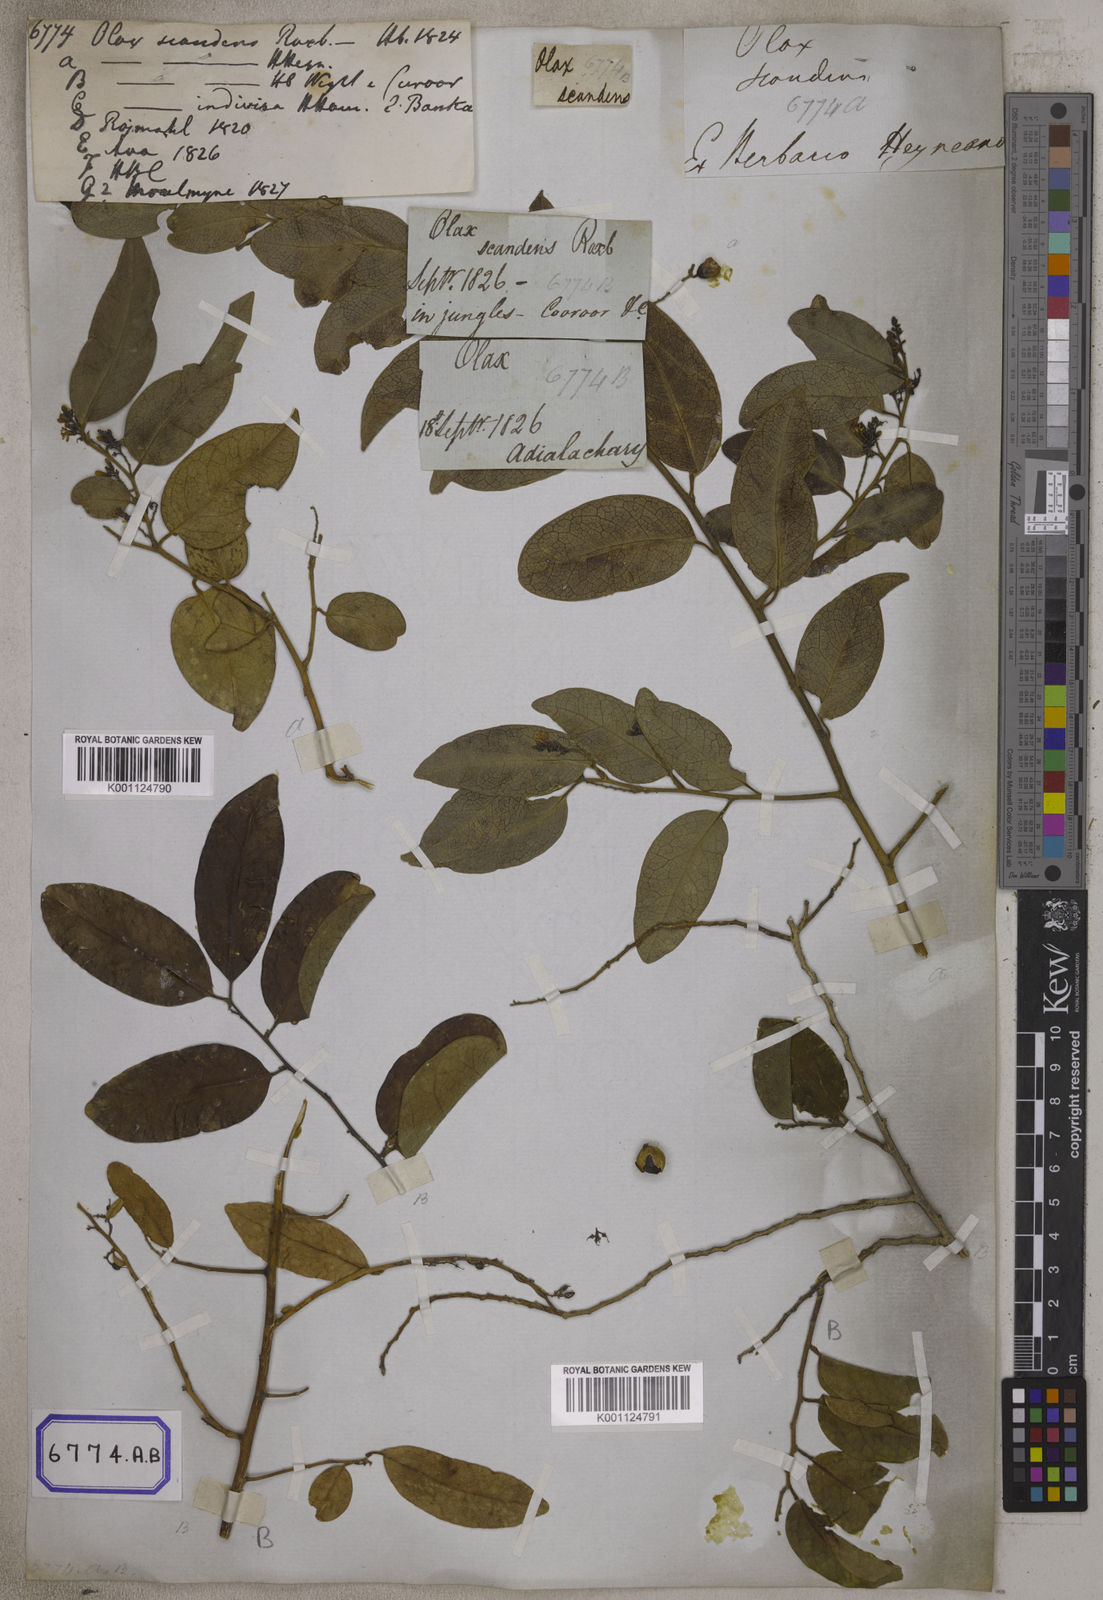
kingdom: Plantae
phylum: Tracheophyta
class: Magnoliopsida
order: Santalales
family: Olacaceae
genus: Olax
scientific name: Olax psittacorum
